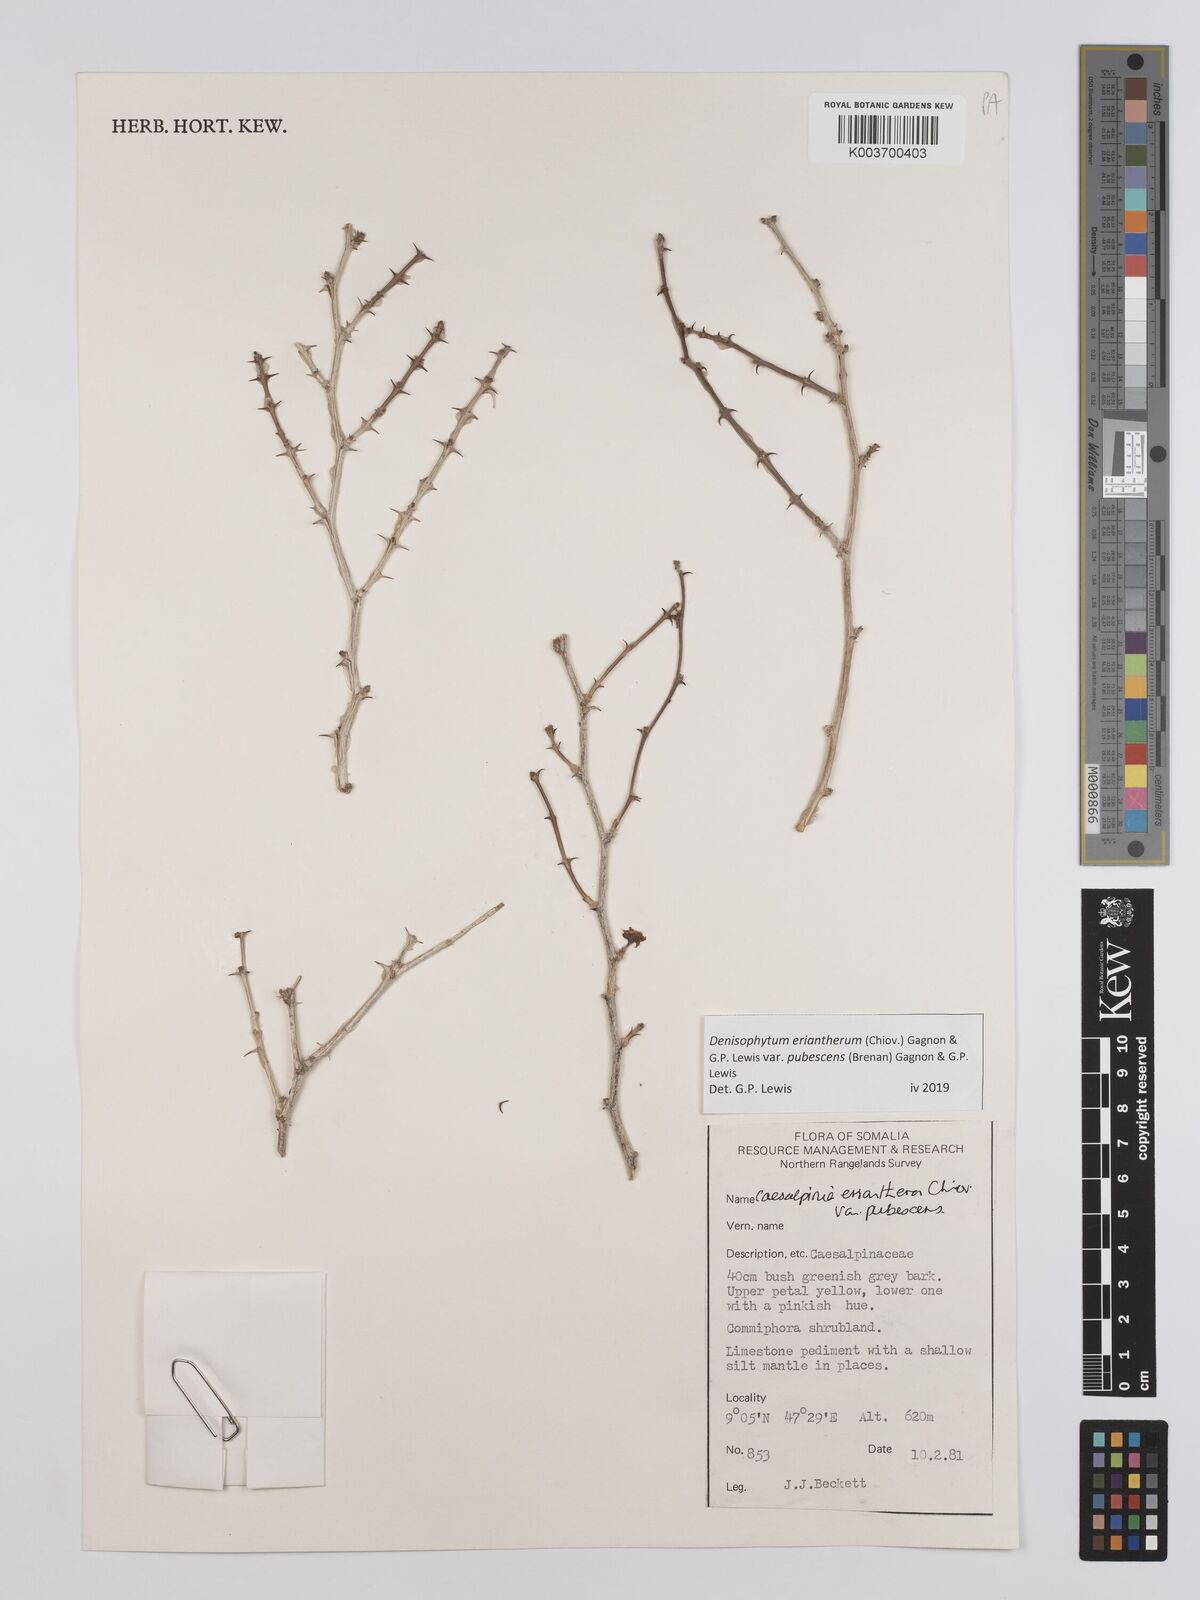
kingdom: Plantae
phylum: Tracheophyta
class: Magnoliopsida
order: Fabales
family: Fabaceae
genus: Denisophytum
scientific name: Denisophytum eriantherum
